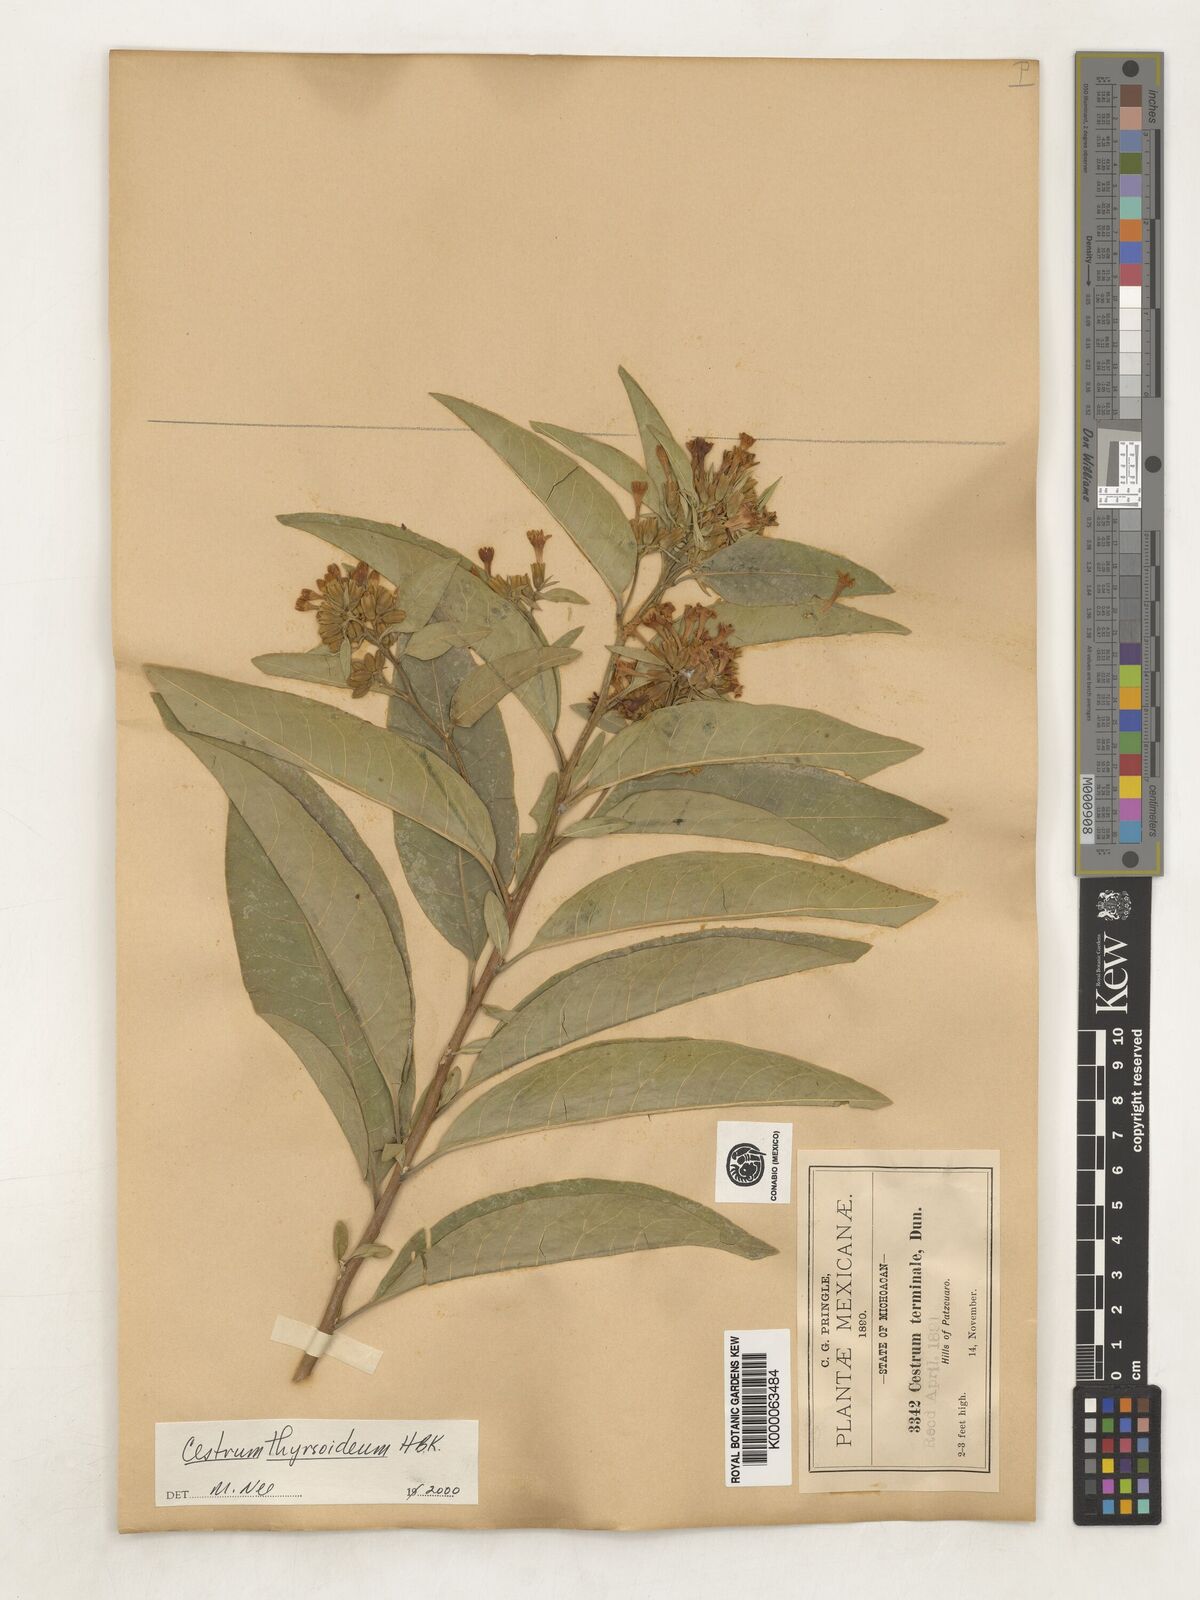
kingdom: Plantae
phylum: Tracheophyta
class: Magnoliopsida
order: Solanales
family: Solanaceae
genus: Cestrum
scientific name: Cestrum
